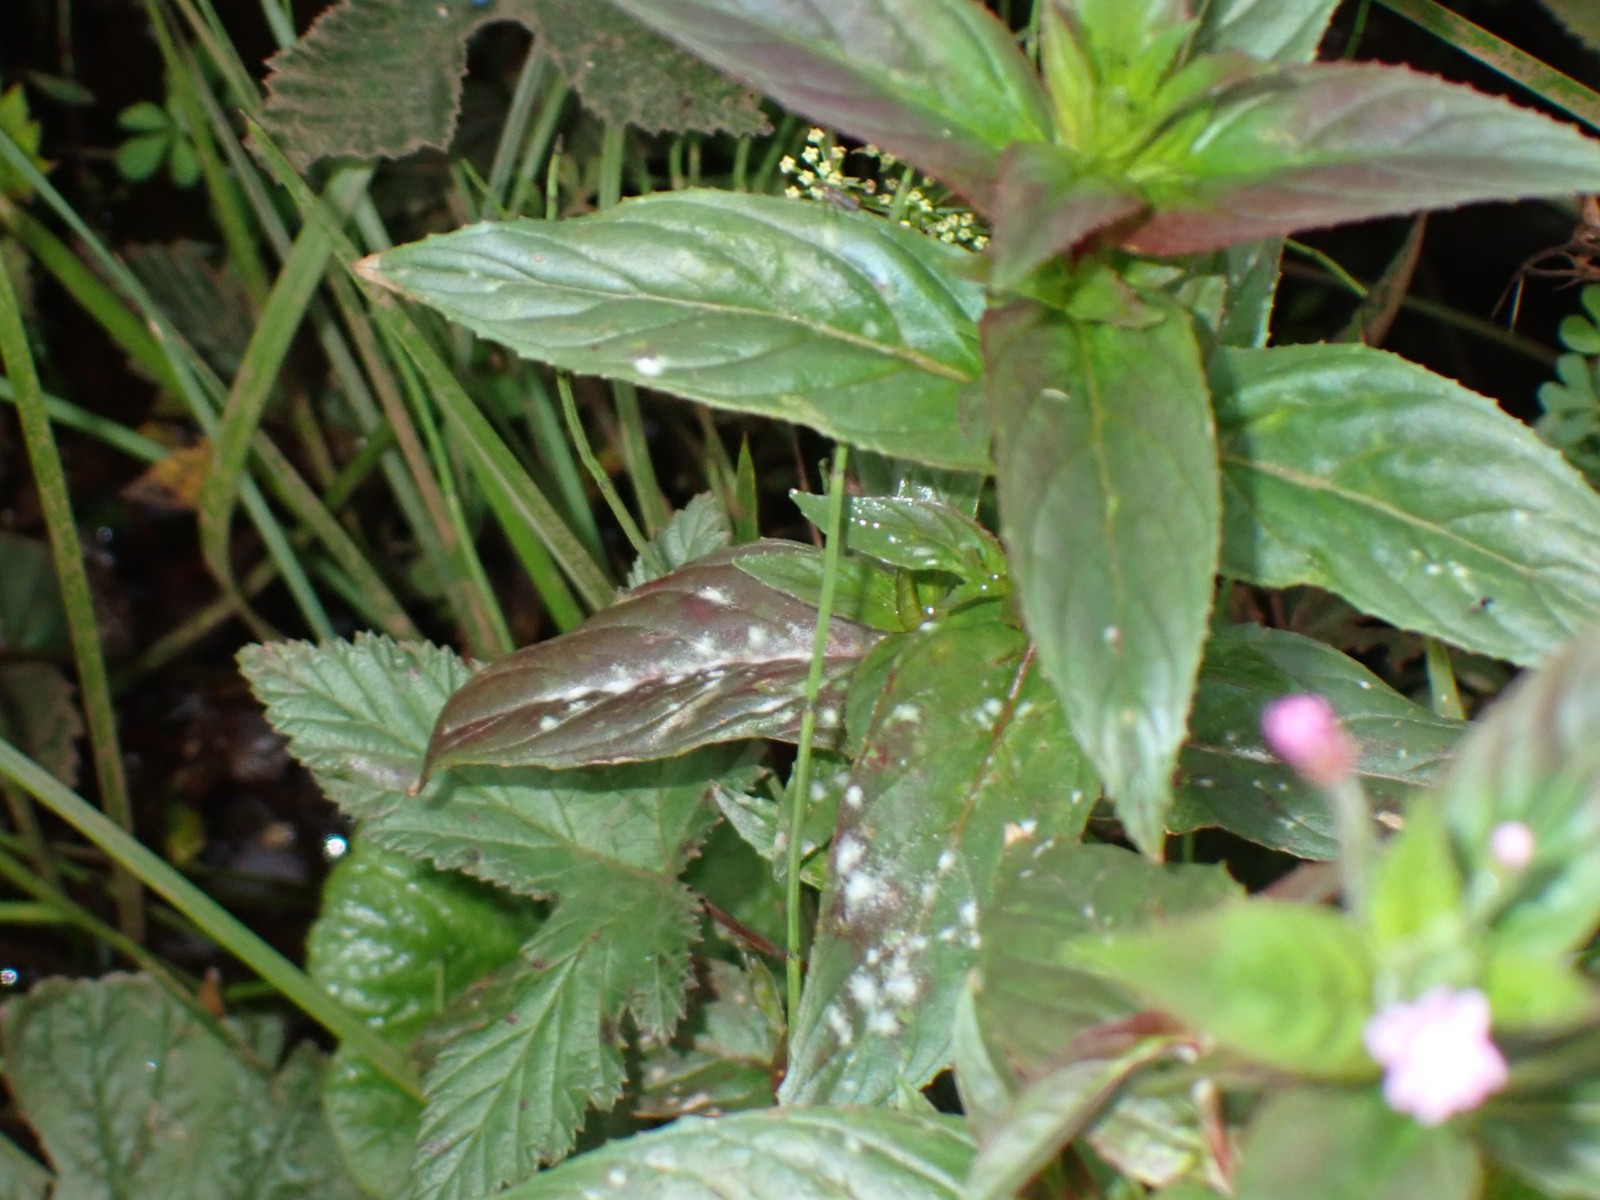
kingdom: Fungi
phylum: Ascomycota
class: Leotiomycetes
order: Helotiales
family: Erysiphaceae
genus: Podosphaera
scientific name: Podosphaera epilobii
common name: dueurt-meldug
